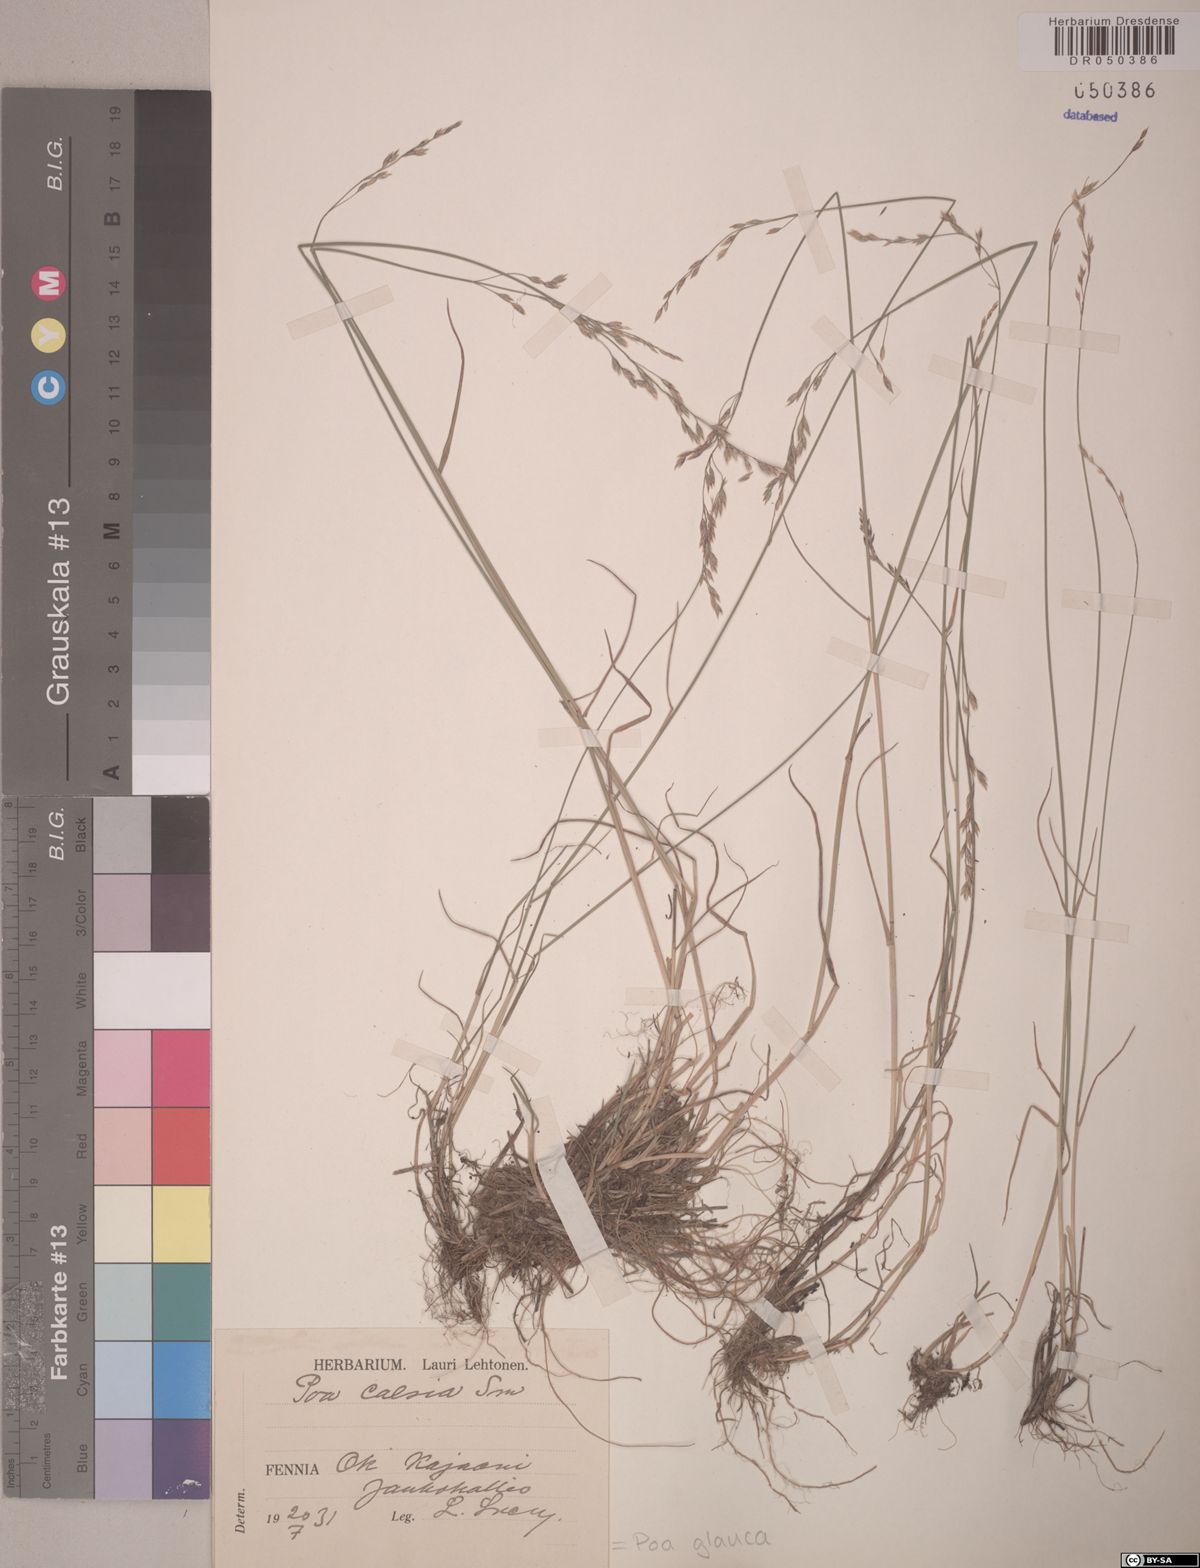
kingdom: Plantae
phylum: Tracheophyta
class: Liliopsida
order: Poales
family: Poaceae
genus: Poa
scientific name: Poa glauca
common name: Glaucous bluegrass
